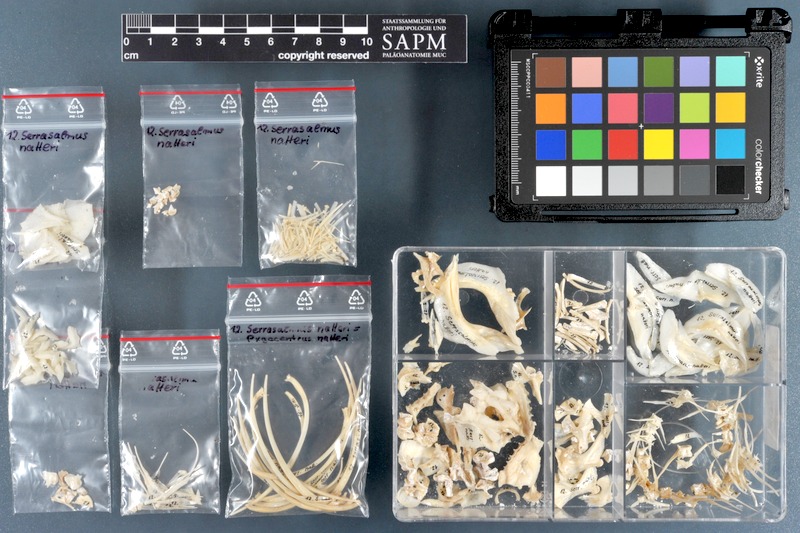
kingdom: Animalia
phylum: Chordata
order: Characiformes
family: Serrasalmidae
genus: Pygocentrus
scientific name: Pygocentrus nattereri
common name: Piranha
